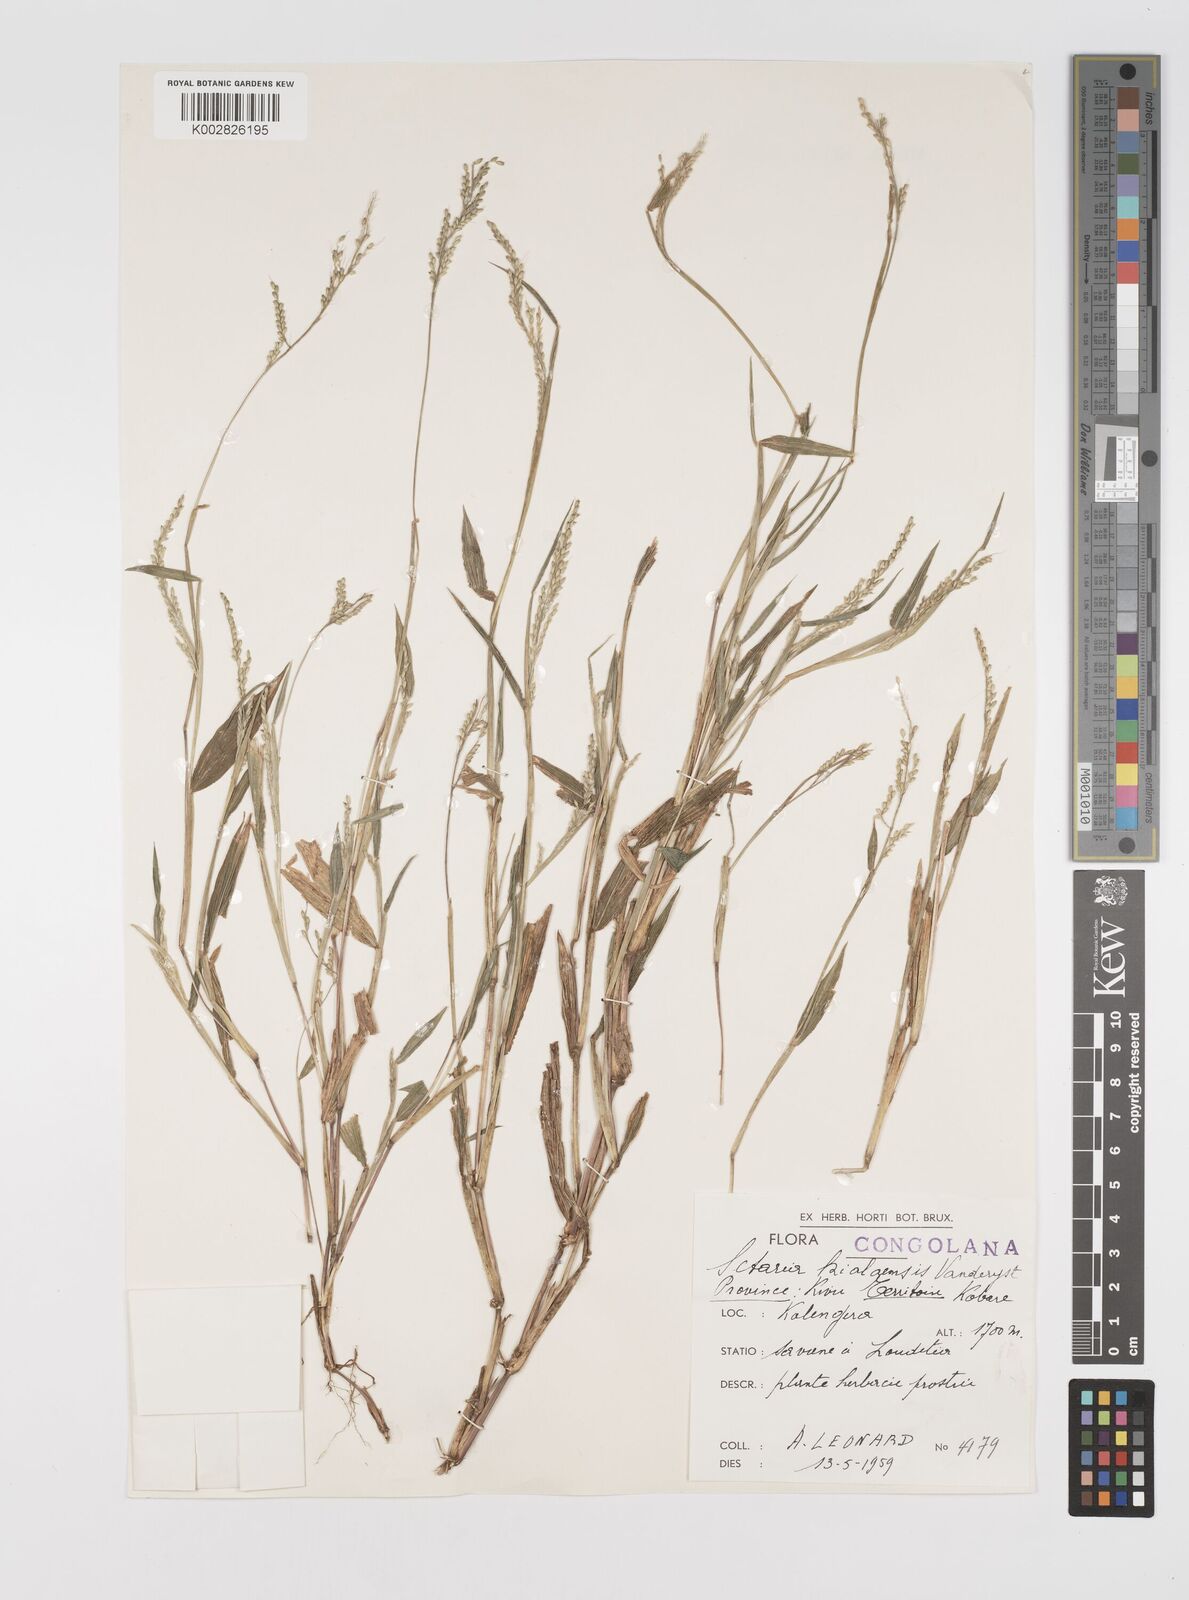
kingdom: Plantae
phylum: Tracheophyta
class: Liliopsida
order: Poales
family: Poaceae
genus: Setaria
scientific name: Setaria homonyma
